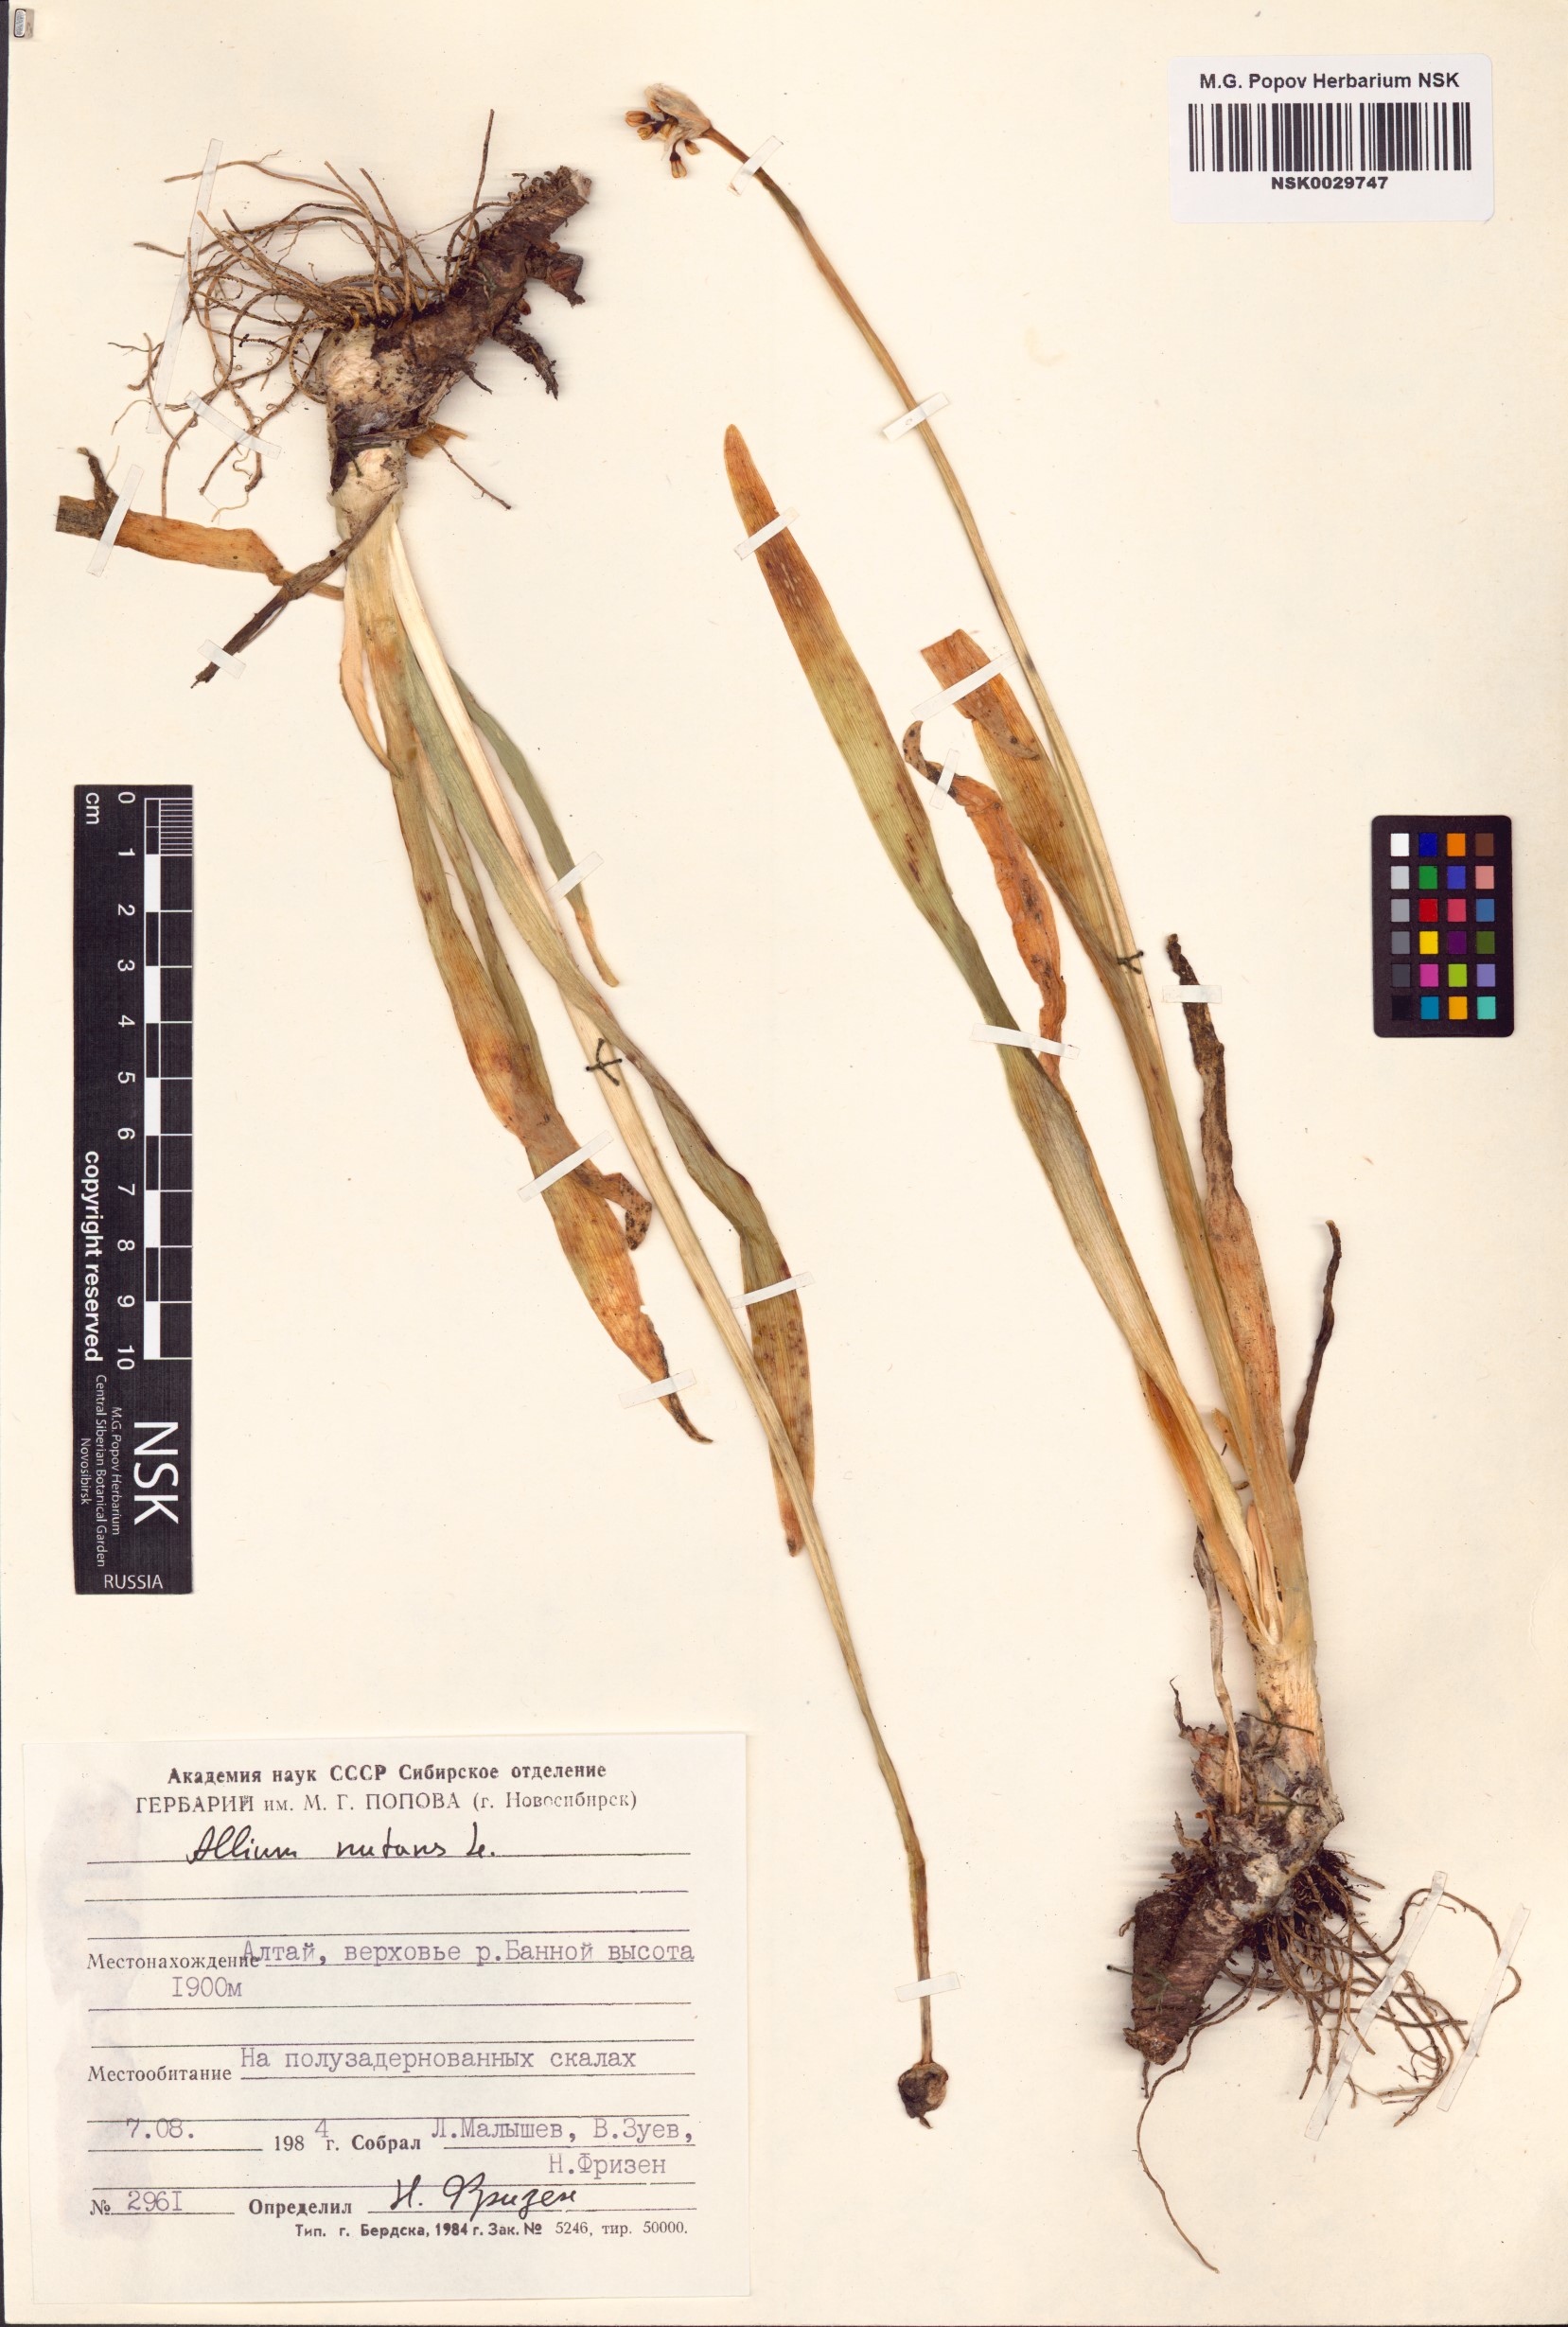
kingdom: Plantae
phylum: Tracheophyta
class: Liliopsida
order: Asparagales
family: Amaryllidaceae
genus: Allium
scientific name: Allium nutans
